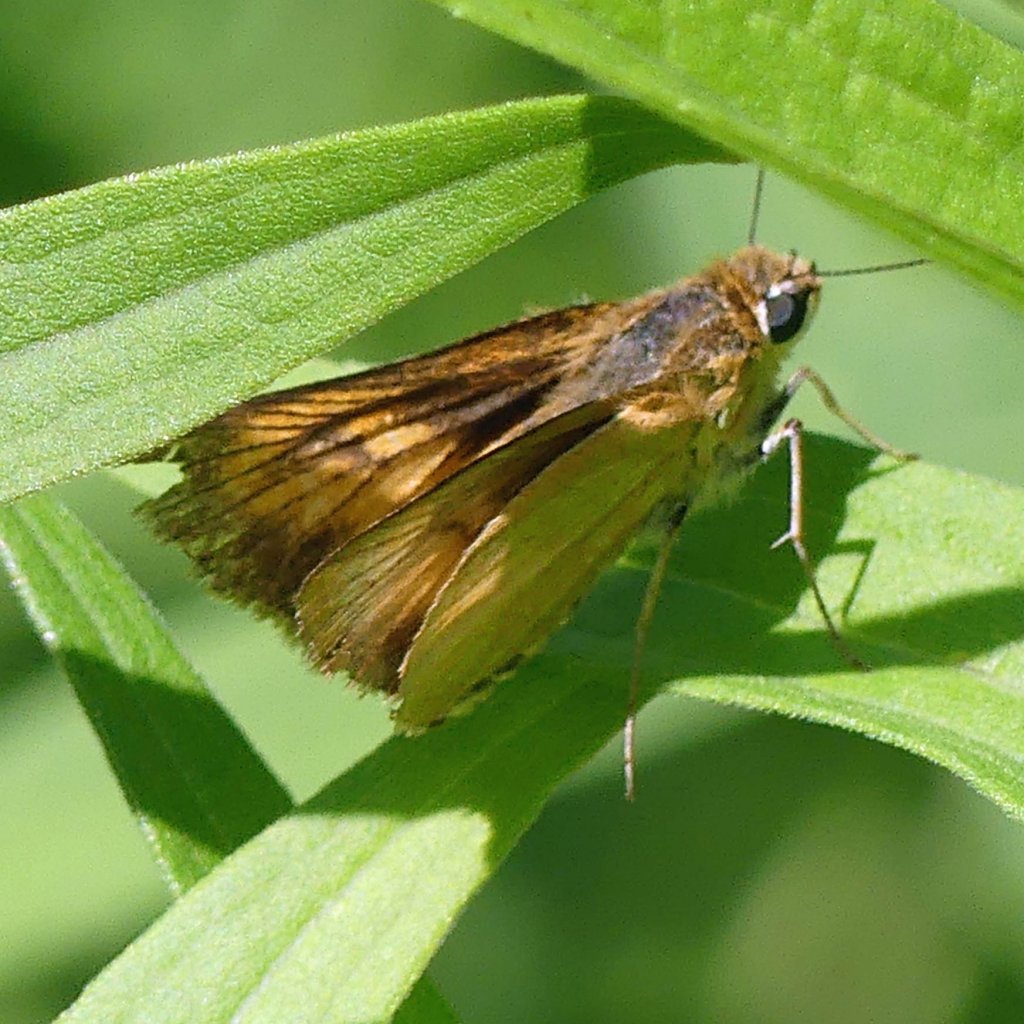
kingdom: Animalia
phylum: Arthropoda
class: Insecta
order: Lepidoptera
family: Hesperiidae
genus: Atrytone
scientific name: Atrytone delaware
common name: Delaware Skipper
